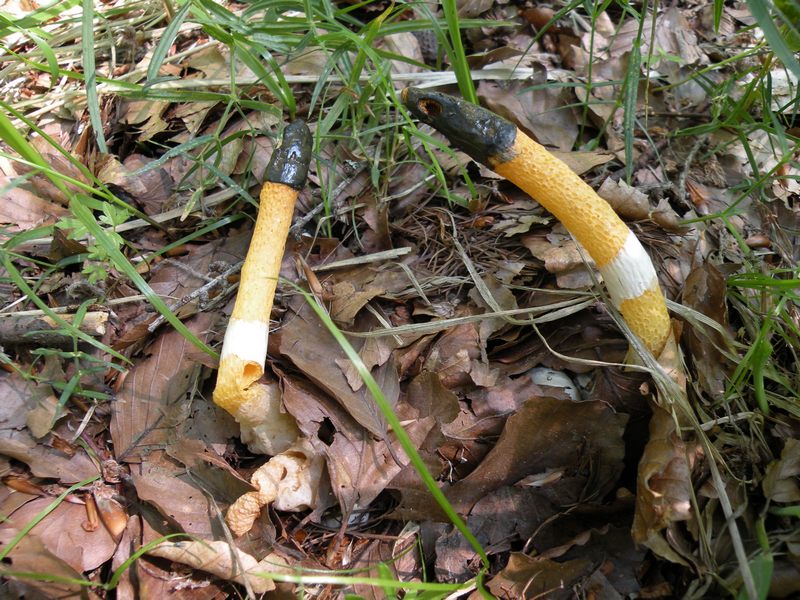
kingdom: Fungi
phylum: Basidiomycota
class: Agaricomycetes
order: Phallales
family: Phallaceae
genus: Mutinus
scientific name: Mutinus caninus
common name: hunde-stinksvamp
